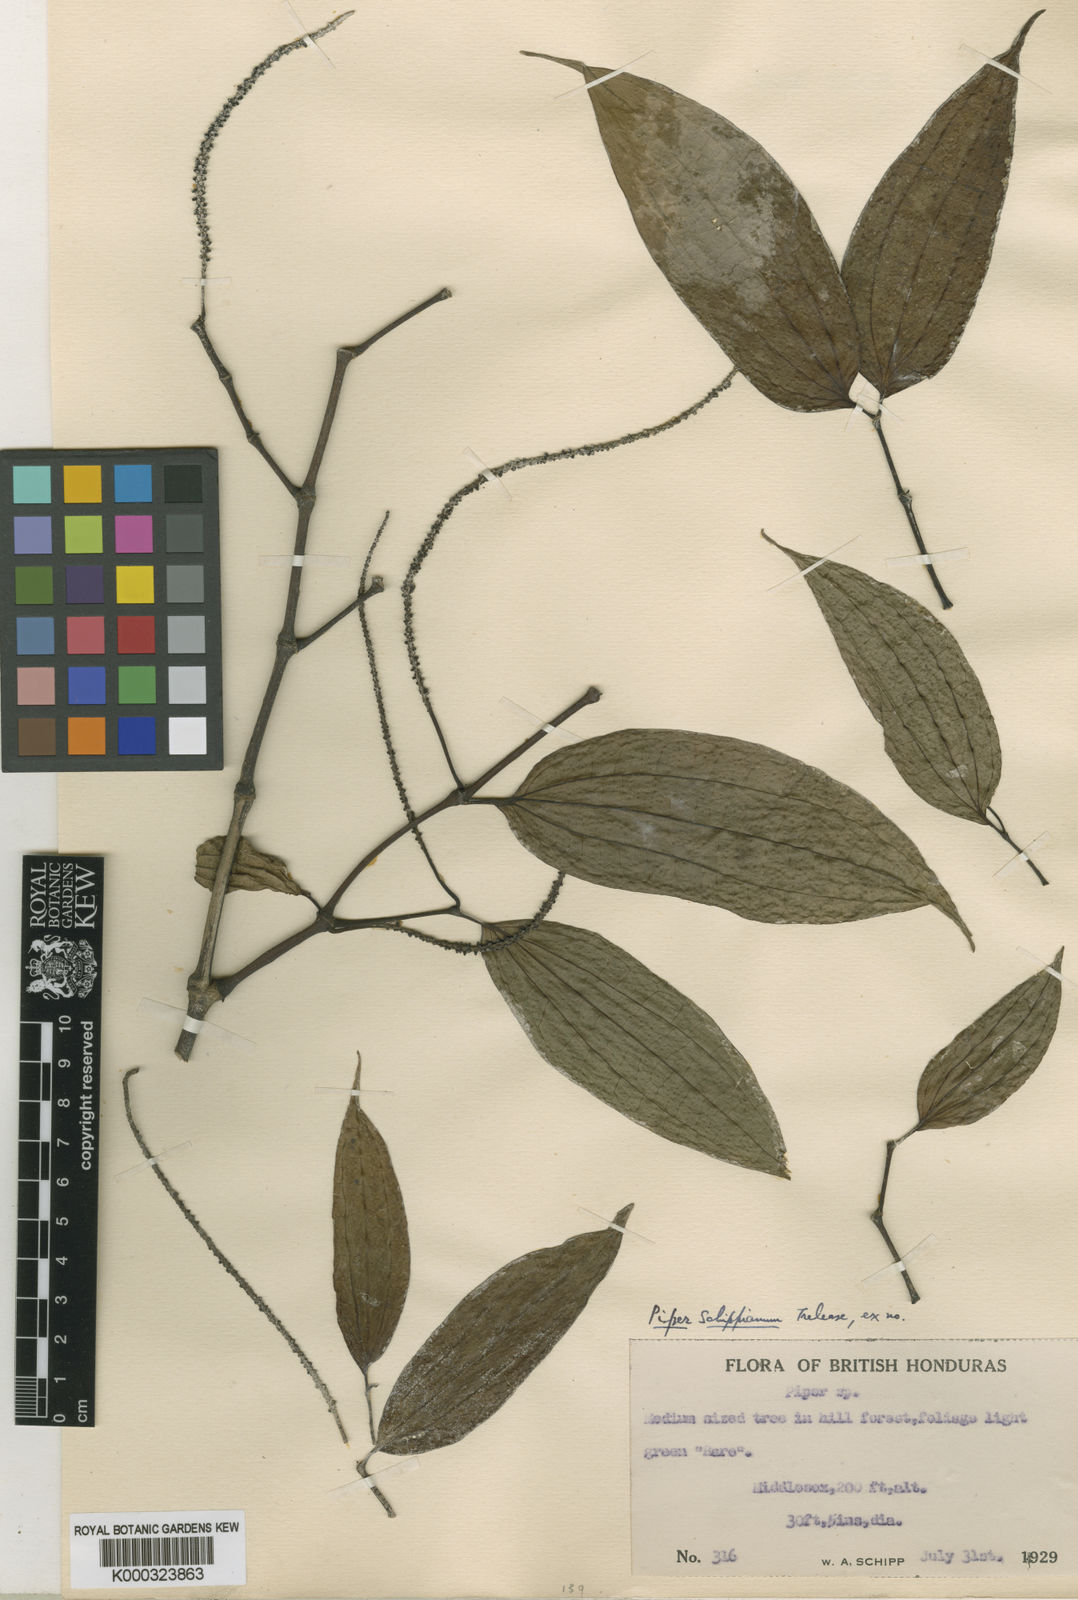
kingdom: Plantae
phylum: Tracheophyta
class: Magnoliopsida
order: Piperales
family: Piperaceae
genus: Piper
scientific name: Piper schippianum
